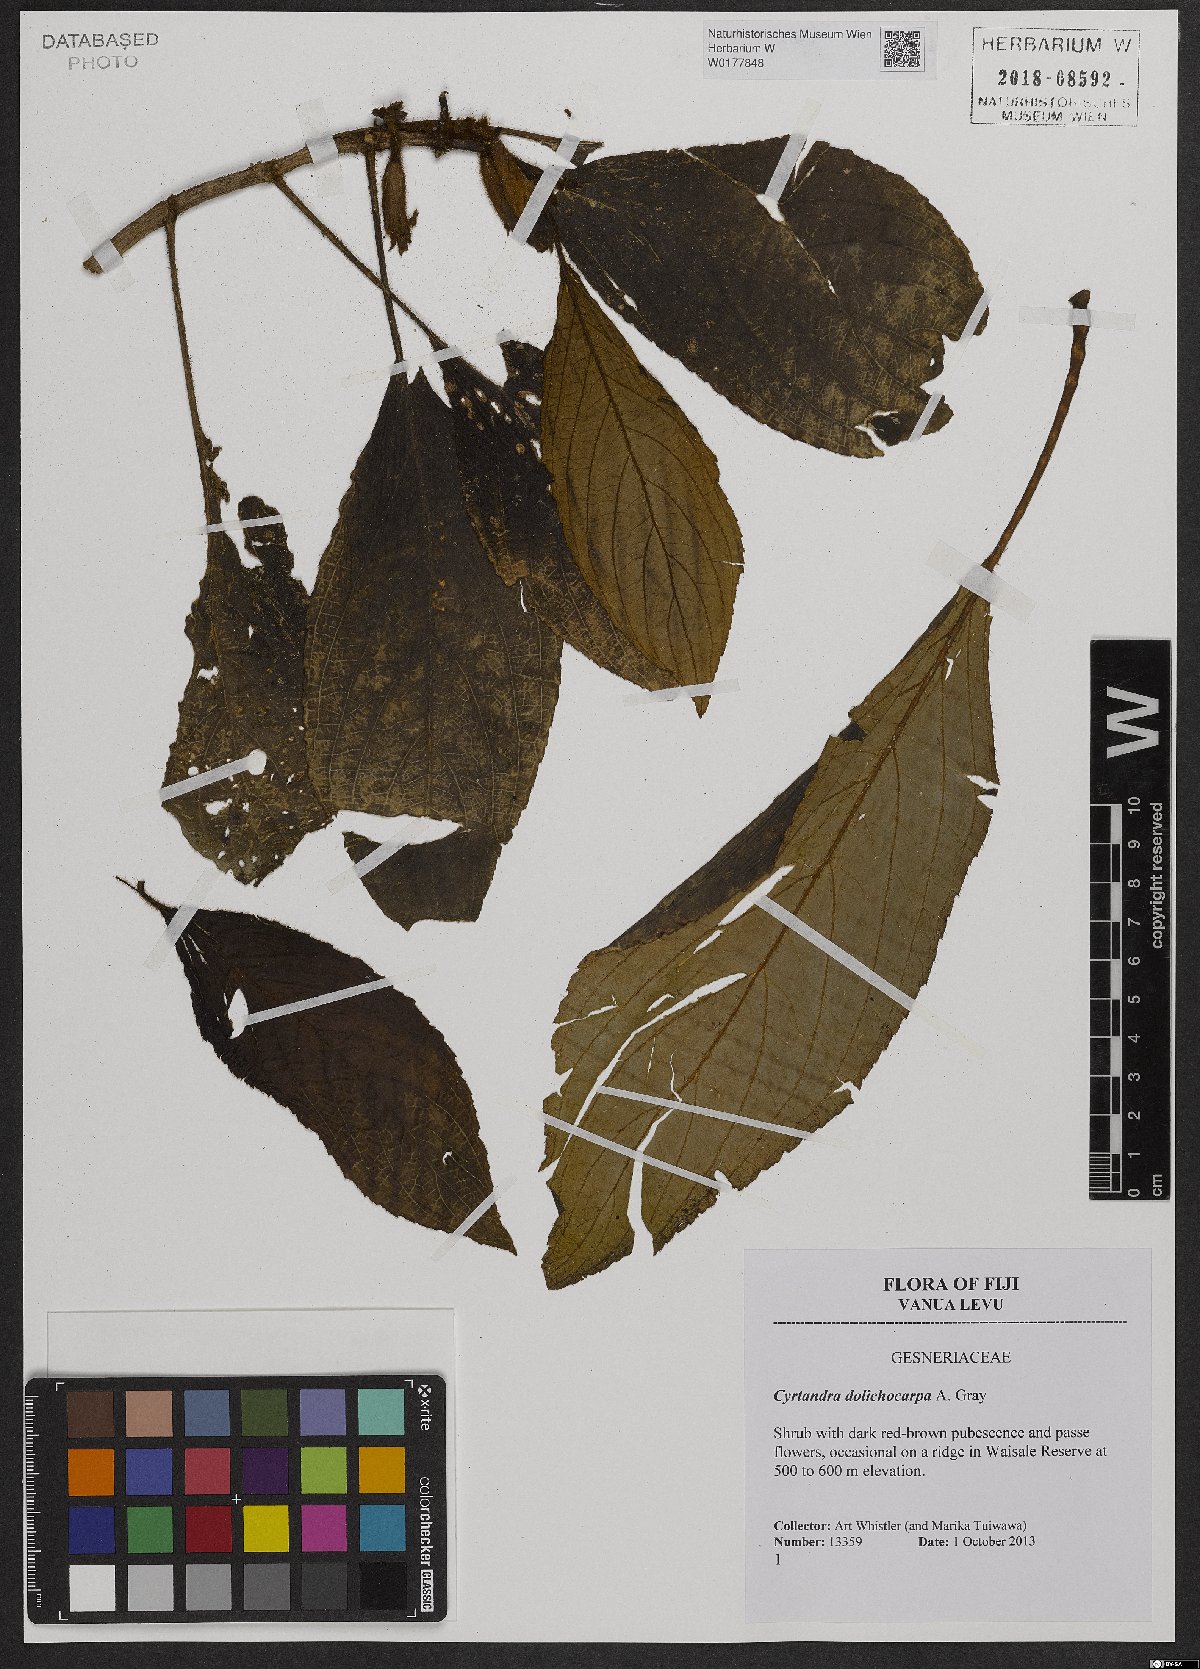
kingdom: Plantae
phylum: Tracheophyta
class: Magnoliopsida
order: Lamiales
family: Gesneriaceae
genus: Cyrtandra
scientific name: Cyrtandra dolichocarpa
